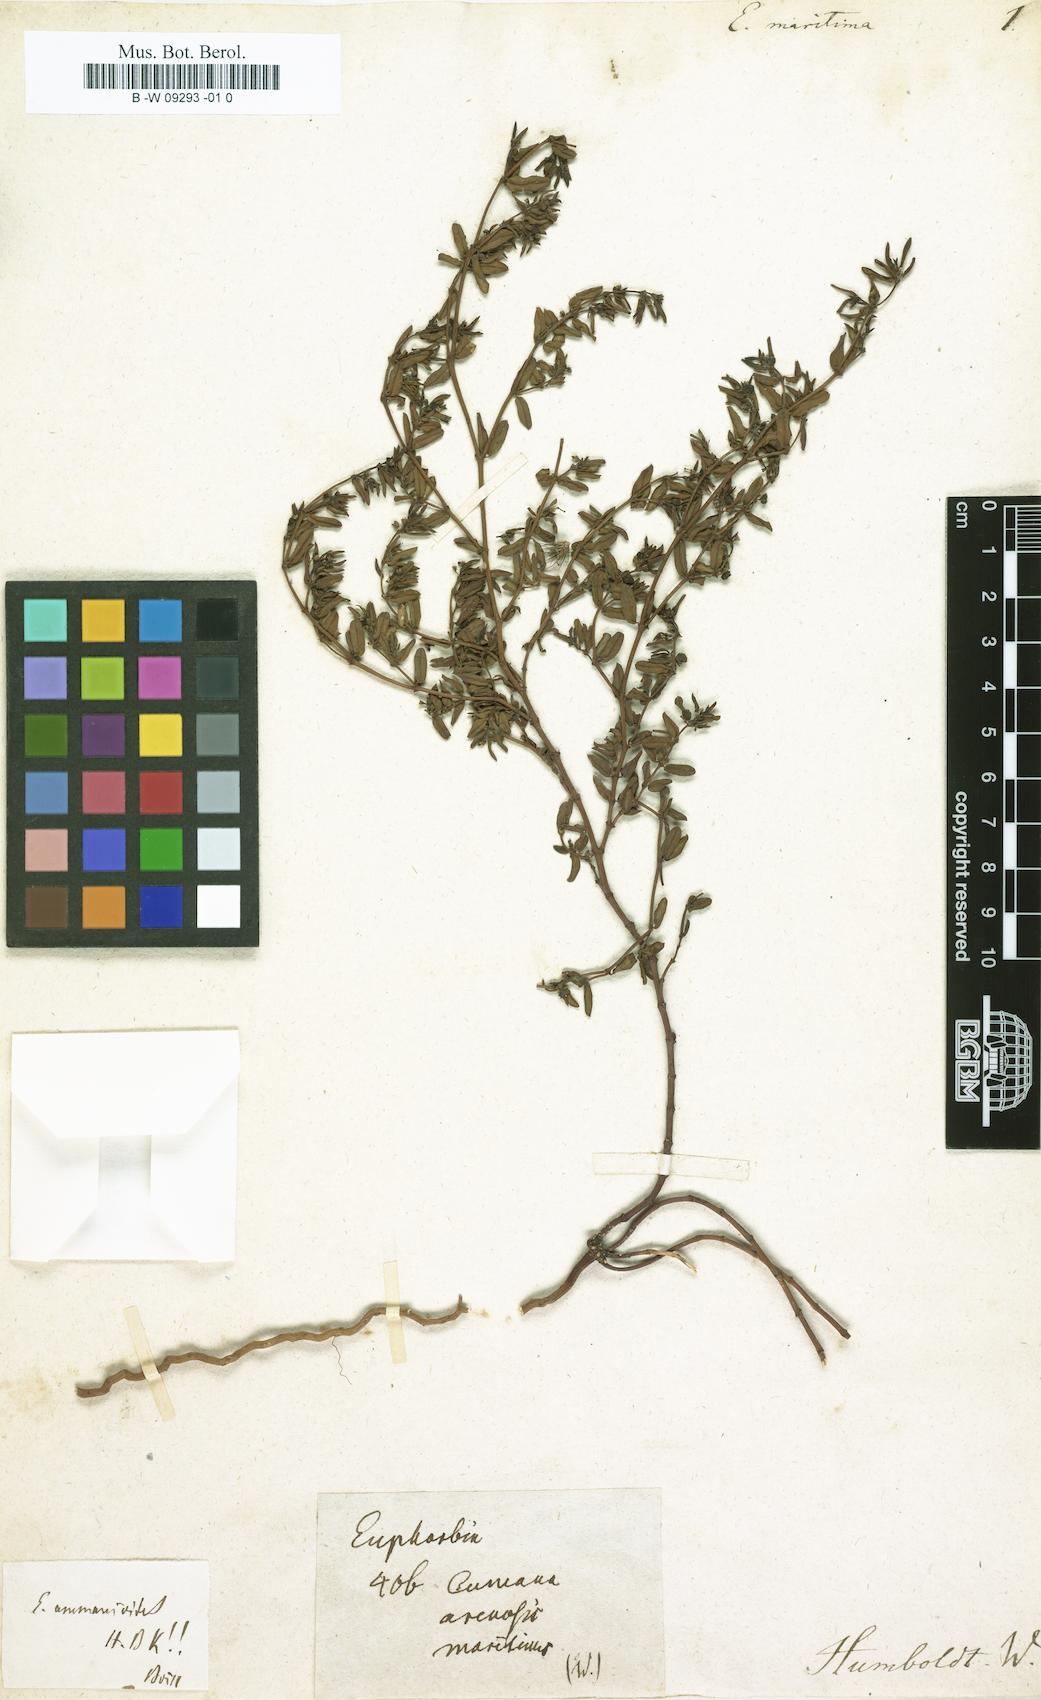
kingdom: Plantae
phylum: Tracheophyta
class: Magnoliopsida
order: Malpighiales
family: Euphorbiaceae
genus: Euphorbia
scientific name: Euphorbia bombensis
